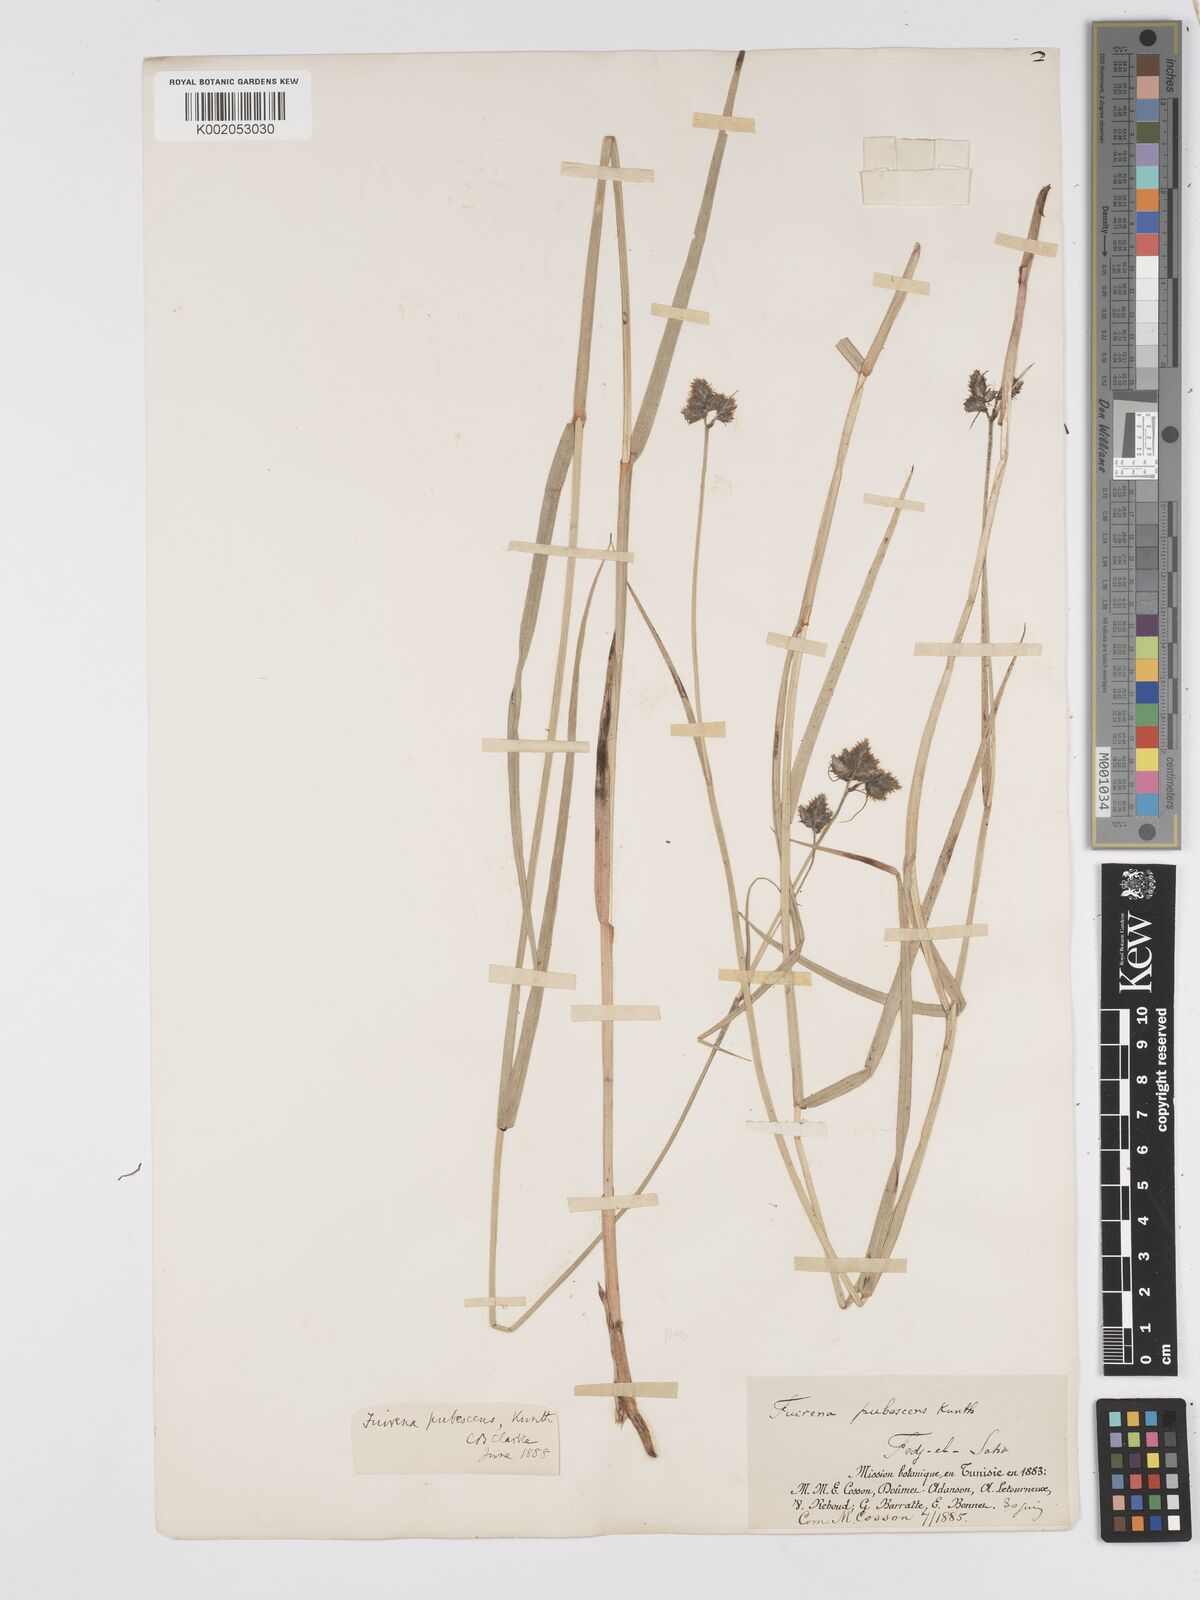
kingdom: Plantae
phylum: Tracheophyta
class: Liliopsida
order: Poales
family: Cyperaceae
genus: Fuirena
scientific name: Fuirena pubescens
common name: Hairy sedge
